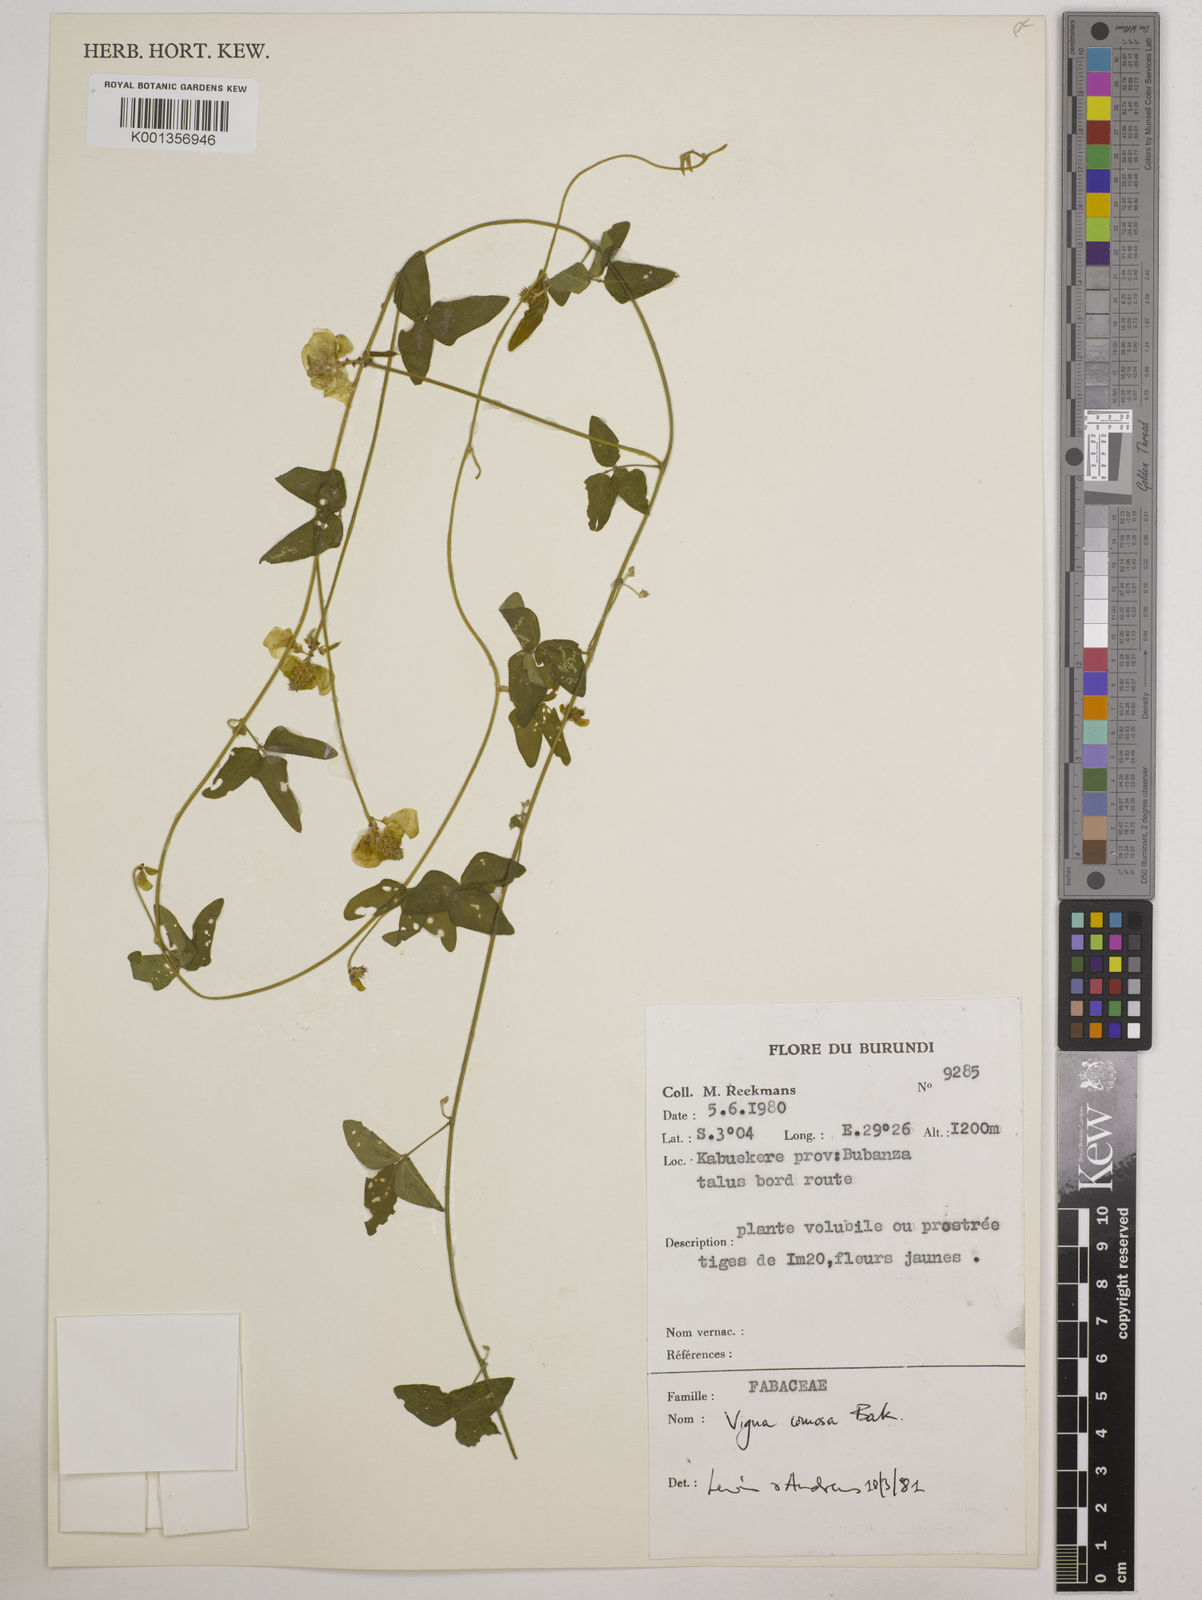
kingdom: Plantae
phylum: Tracheophyta
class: Magnoliopsida
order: Fabales
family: Fabaceae
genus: Vigna
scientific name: Vigna comosa
